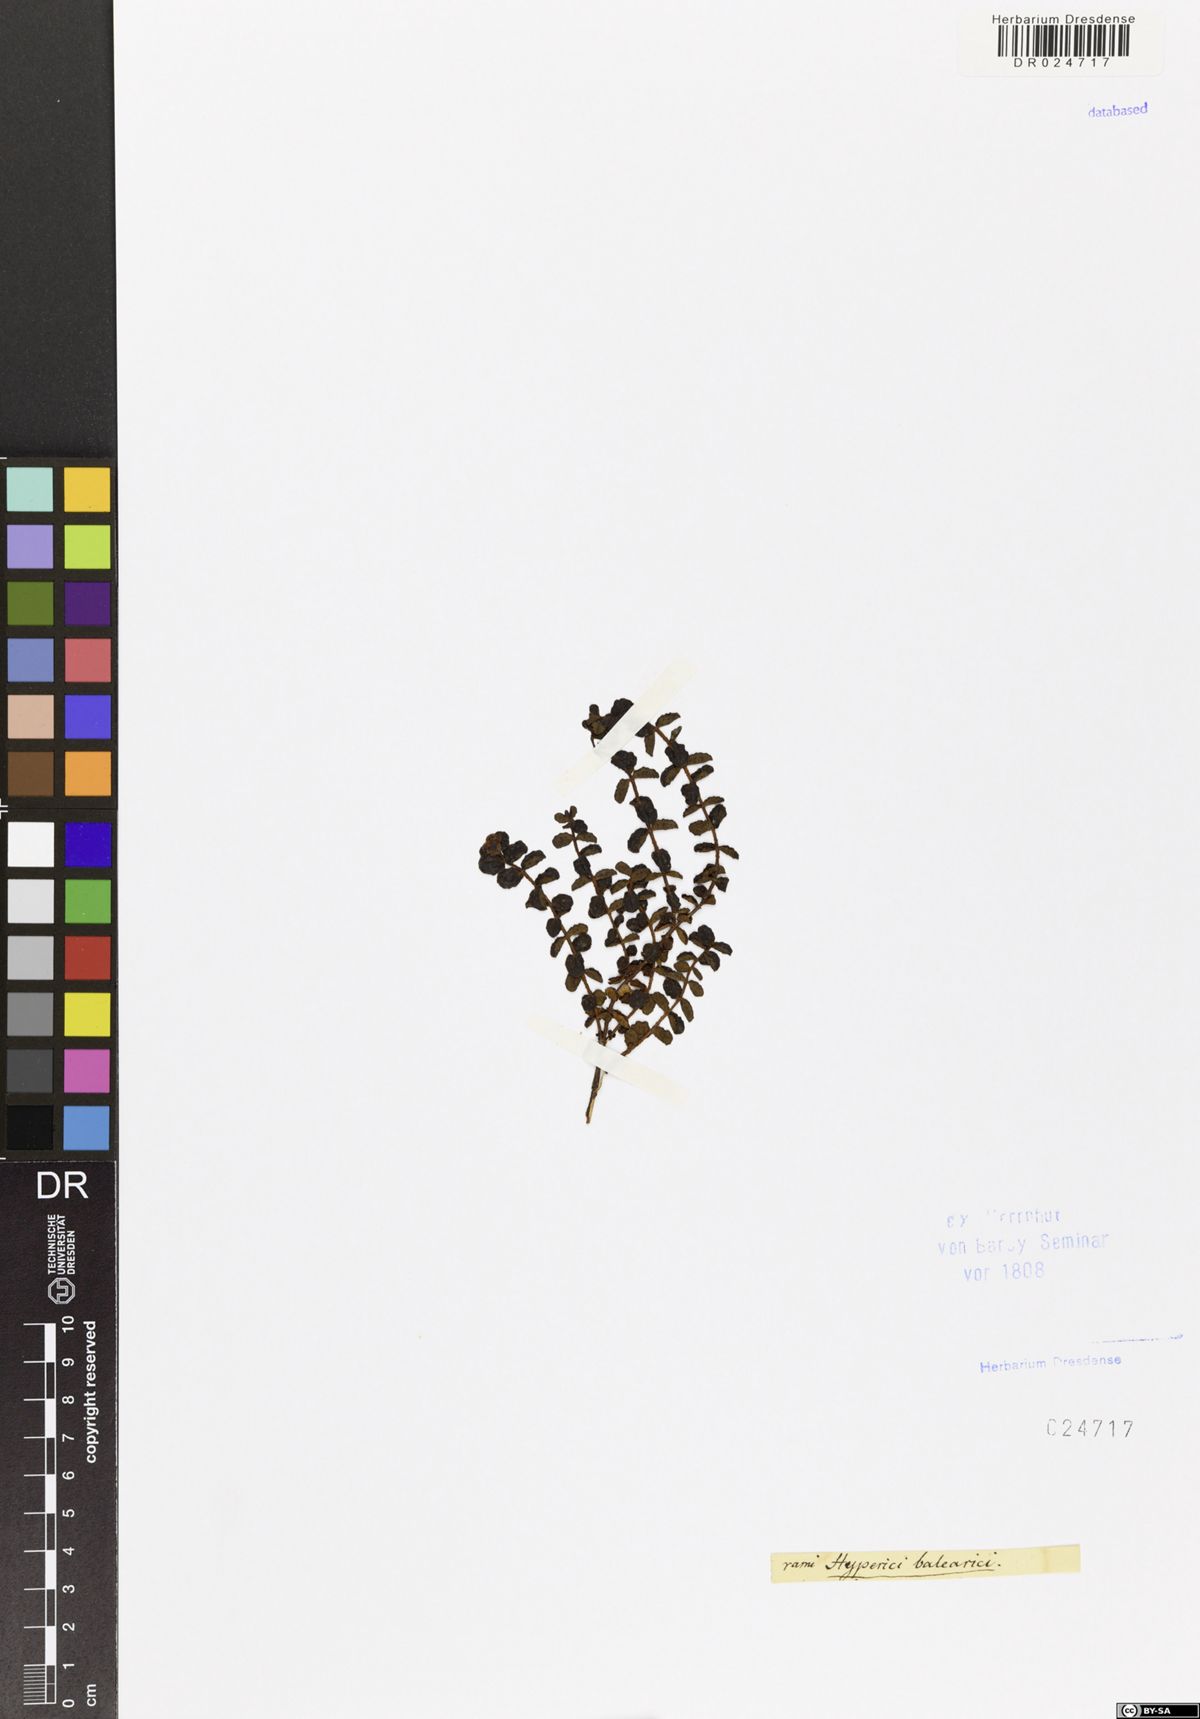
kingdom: Plantae
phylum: Tracheophyta
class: Magnoliopsida
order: Malpighiales
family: Hypericaceae
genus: Hypericum
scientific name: Hypericum balearicum
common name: Majorca st john's wort
